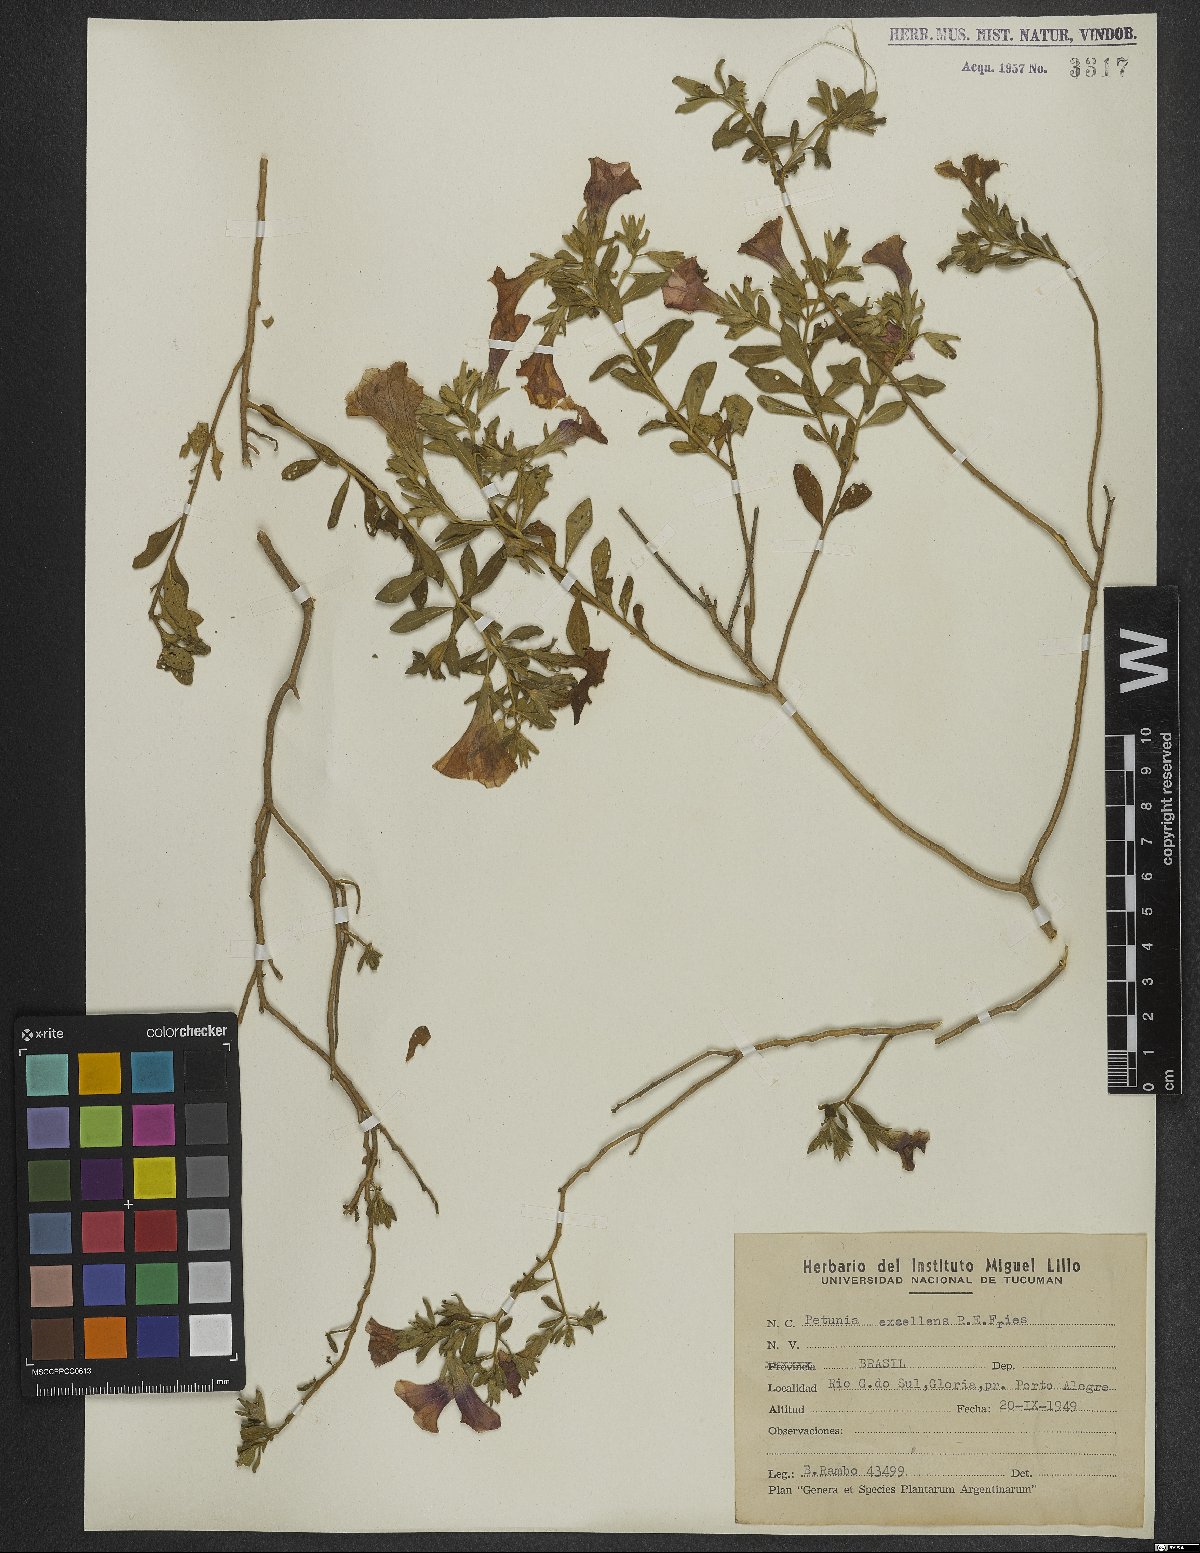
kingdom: Plantae
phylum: Tracheophyta
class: Magnoliopsida
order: Solanales
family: Solanaceae
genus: Calibrachoa
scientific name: Calibrachoa excellens
